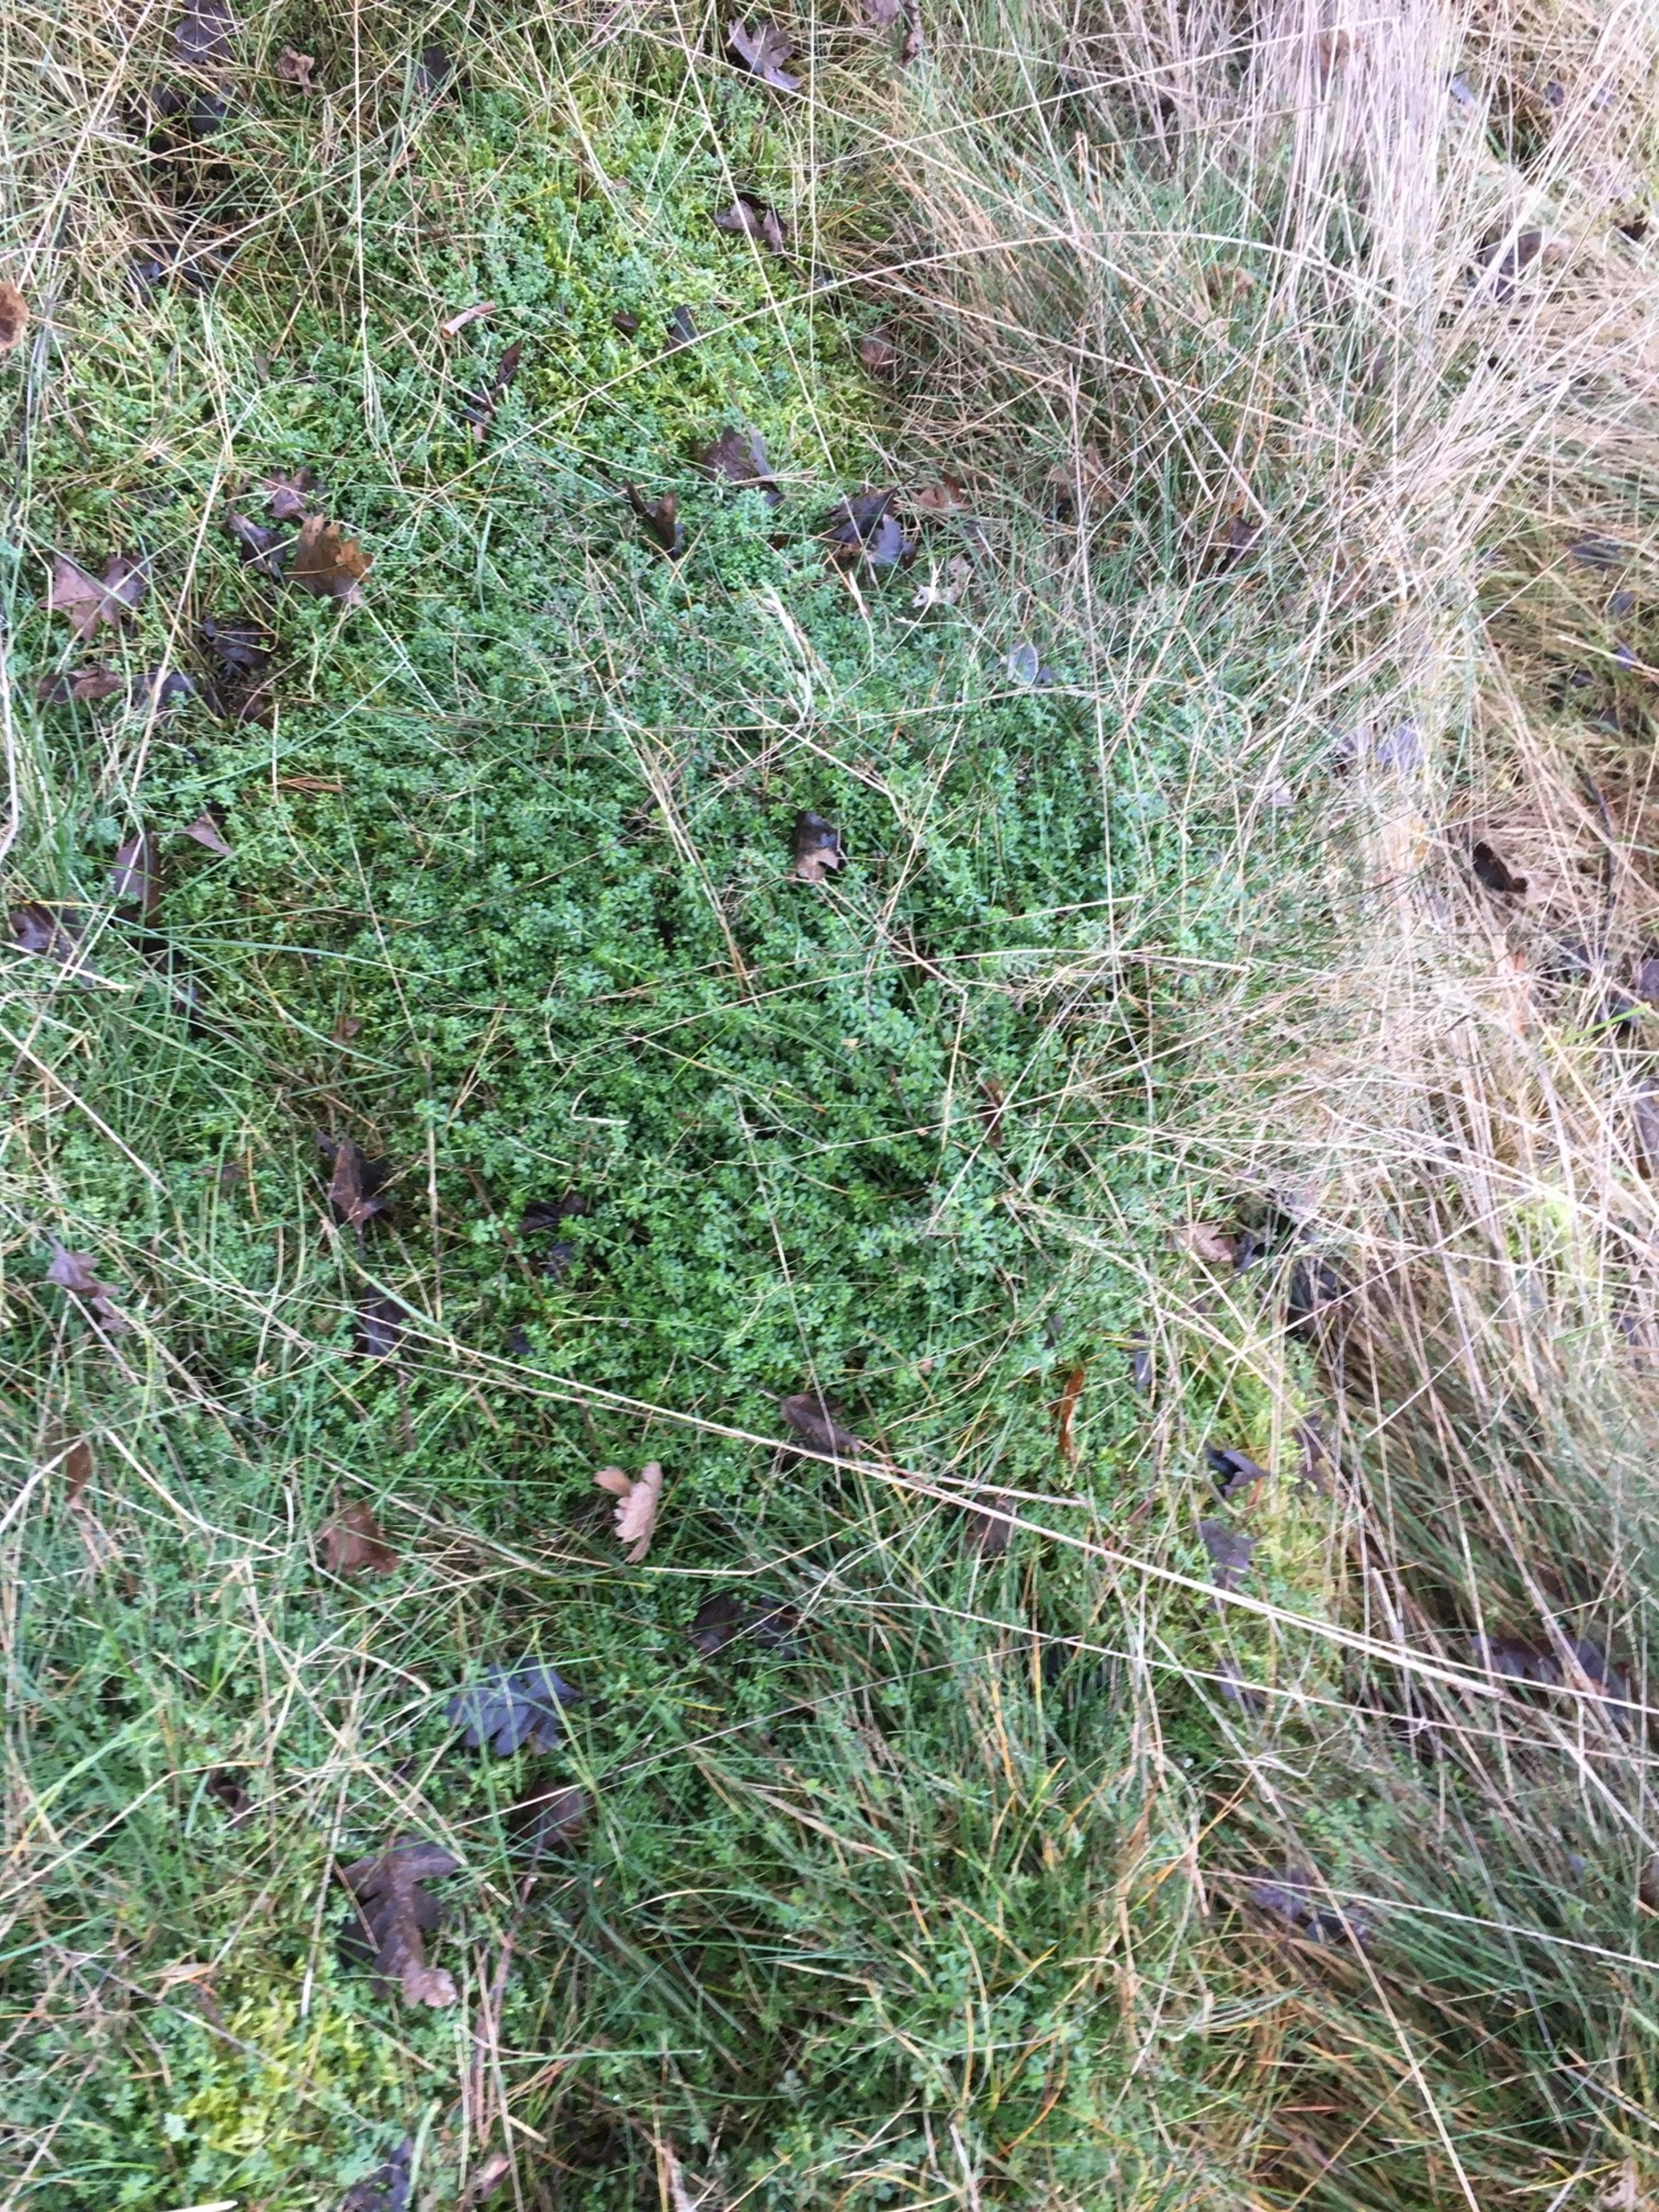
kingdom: Plantae
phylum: Tracheophyta
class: Magnoliopsida
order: Gentianales
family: Rubiaceae
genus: Galium
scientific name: Galium saxatile
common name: Lyng-snerre
